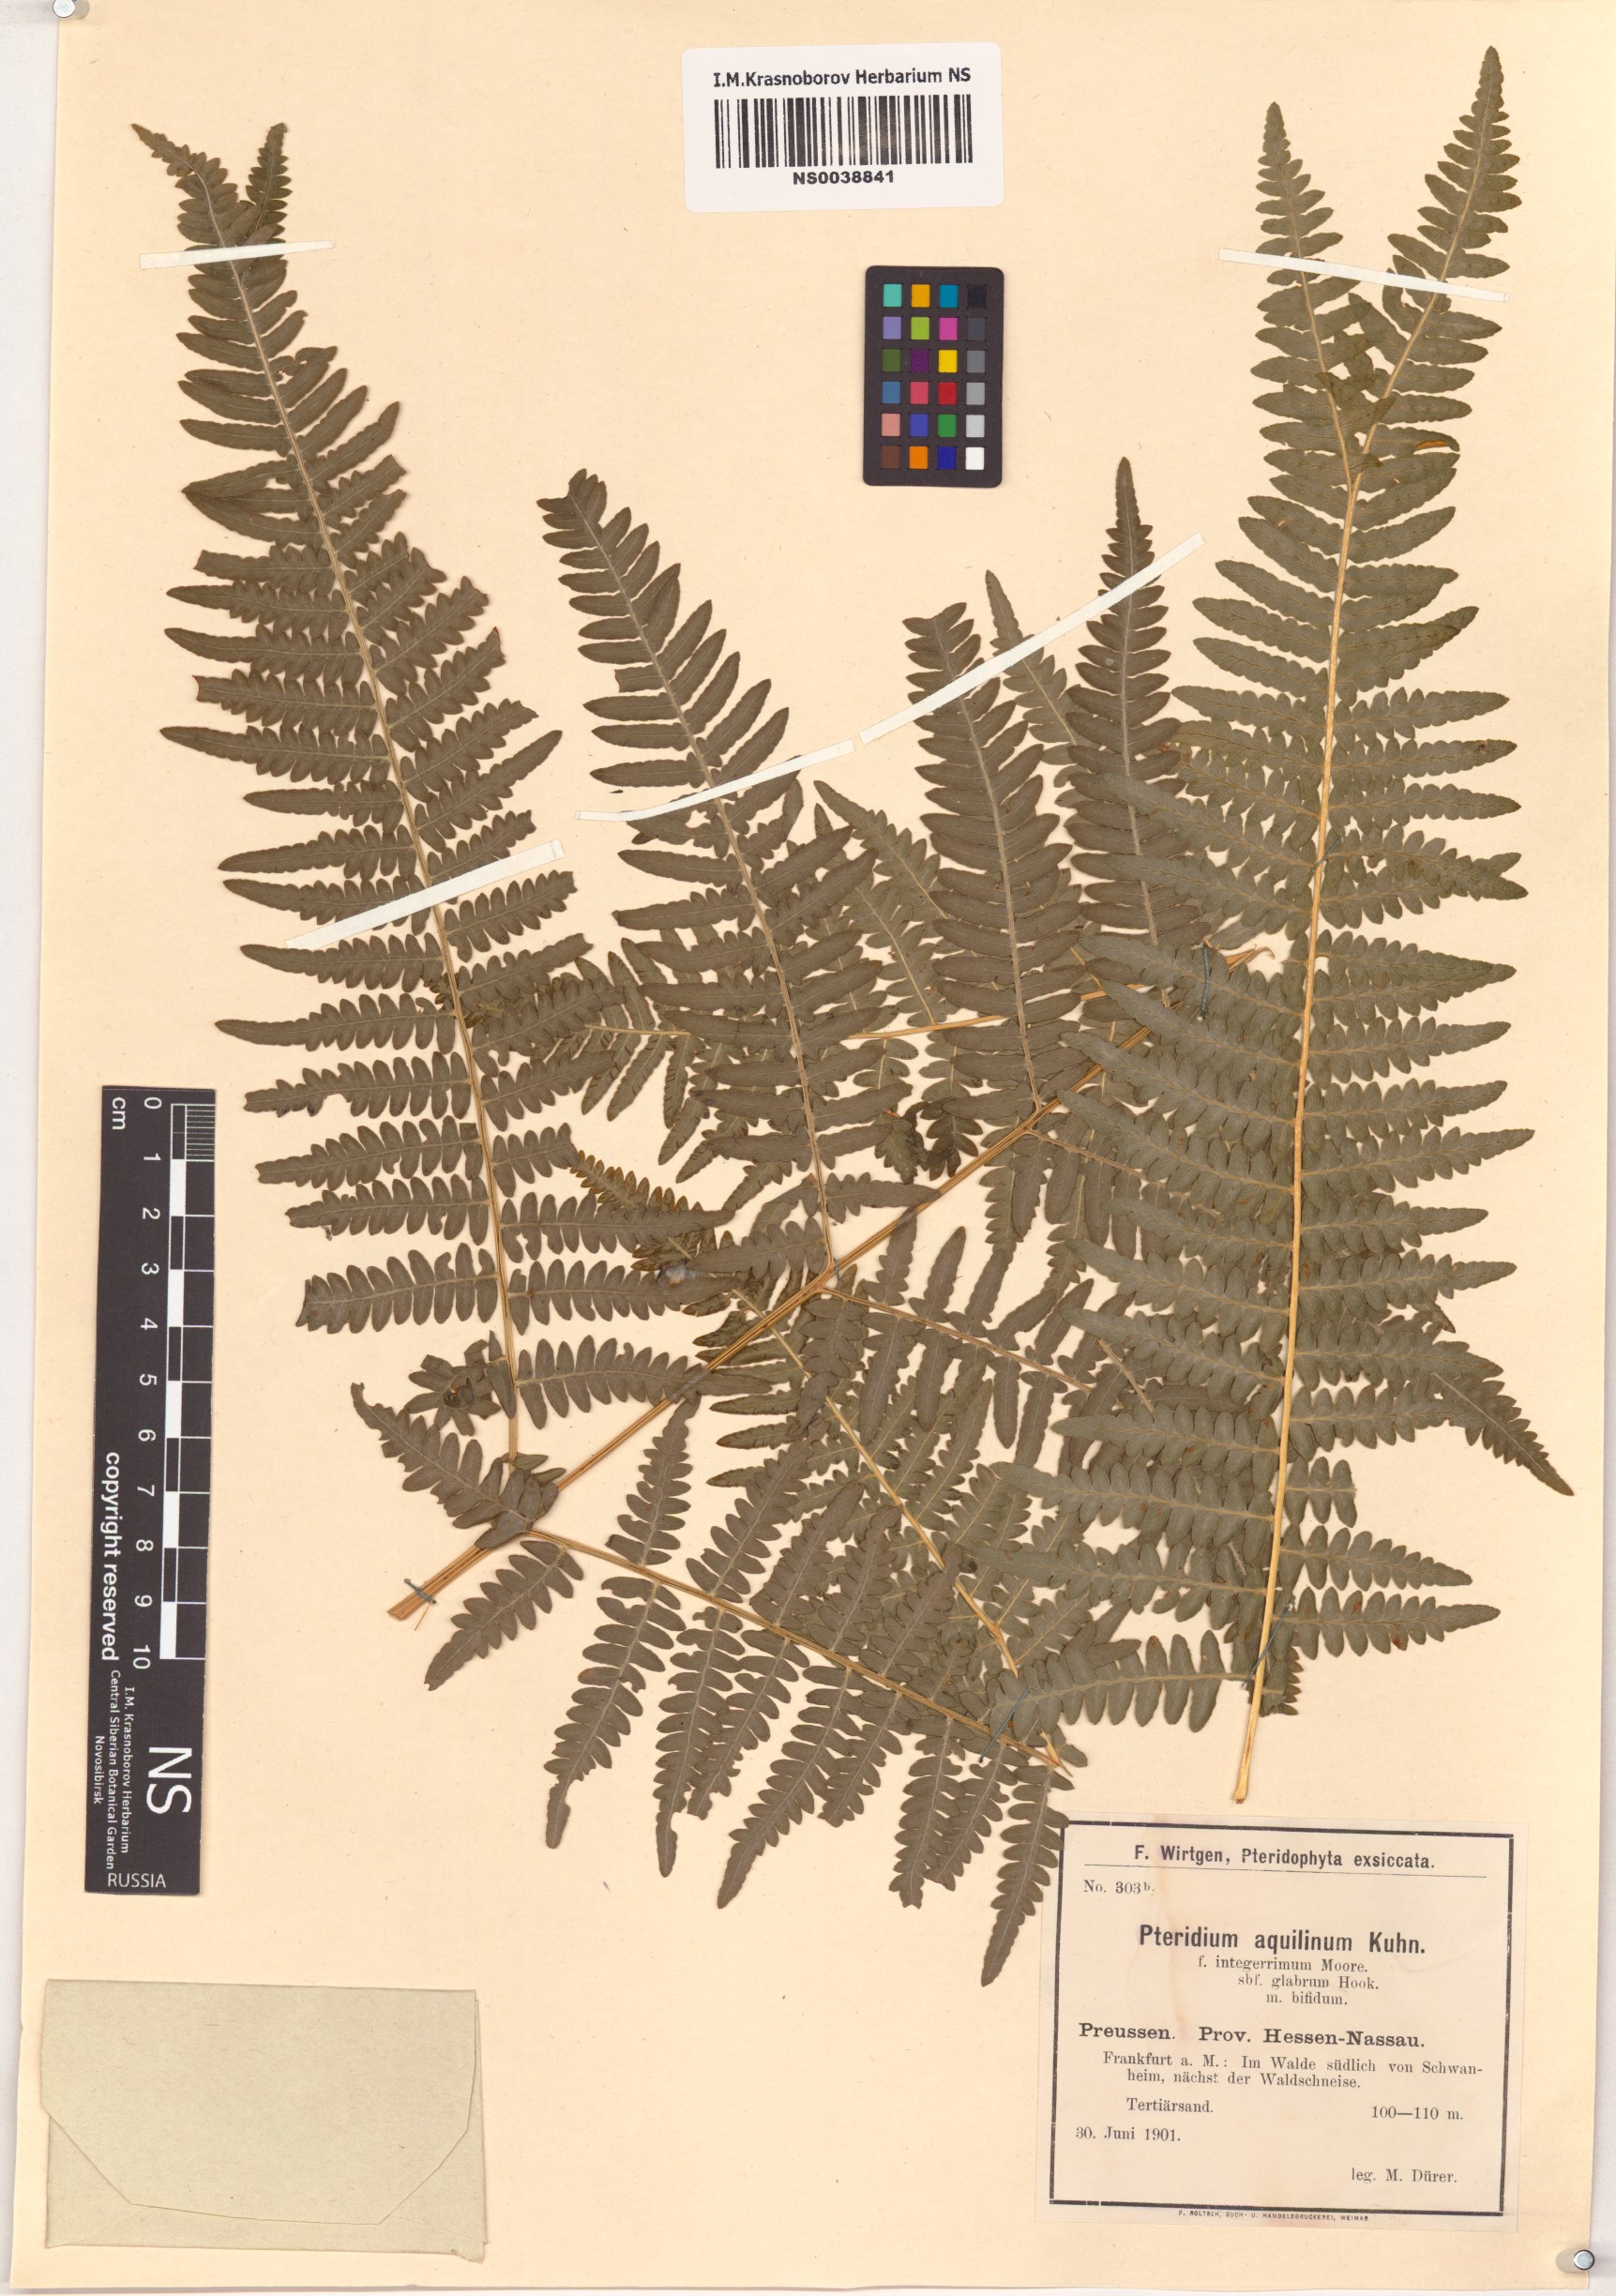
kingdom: Plantae
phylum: Tracheophyta
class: Polypodiopsida
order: Polypodiales
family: Dennstaedtiaceae
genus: Pteridium
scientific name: Pteridium aquilinum
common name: Bracken
